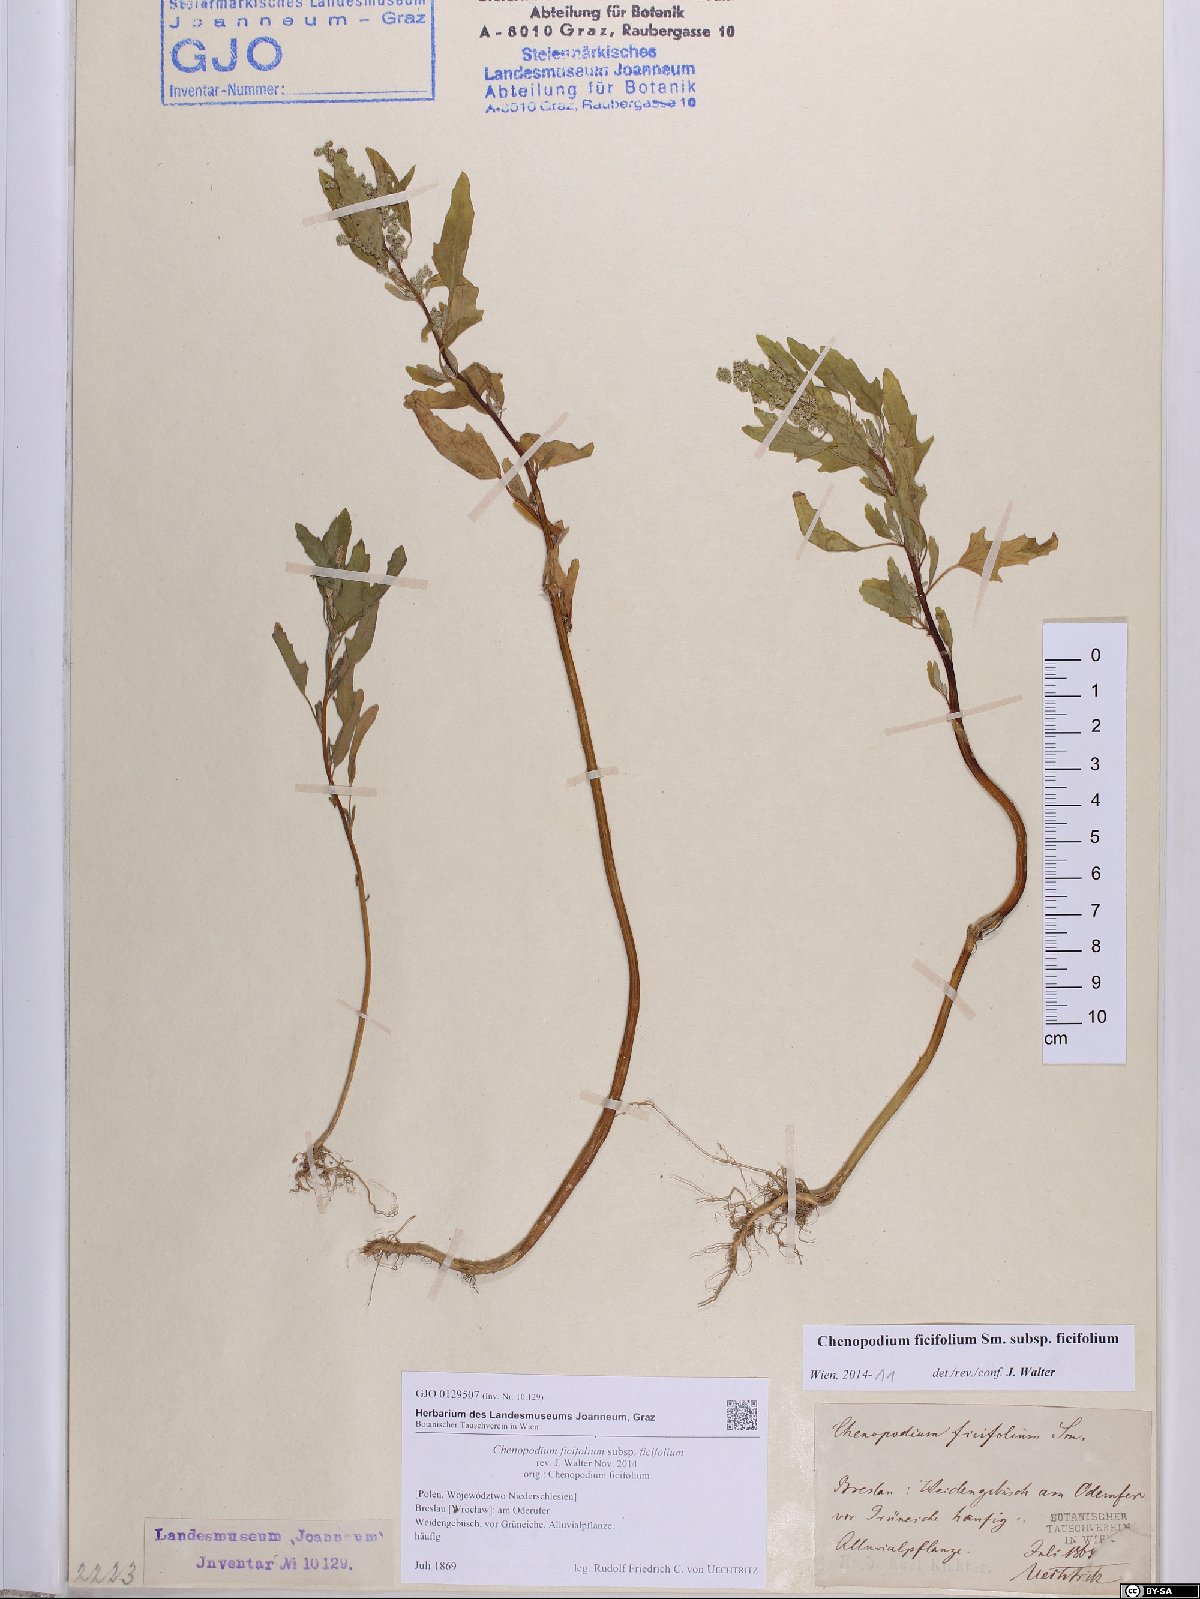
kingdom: Plantae
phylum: Tracheophyta
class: Magnoliopsida
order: Caryophyllales
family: Amaranthaceae
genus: Chenopodium
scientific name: Chenopodium ficifolium
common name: Fig-leaved goosefoot
